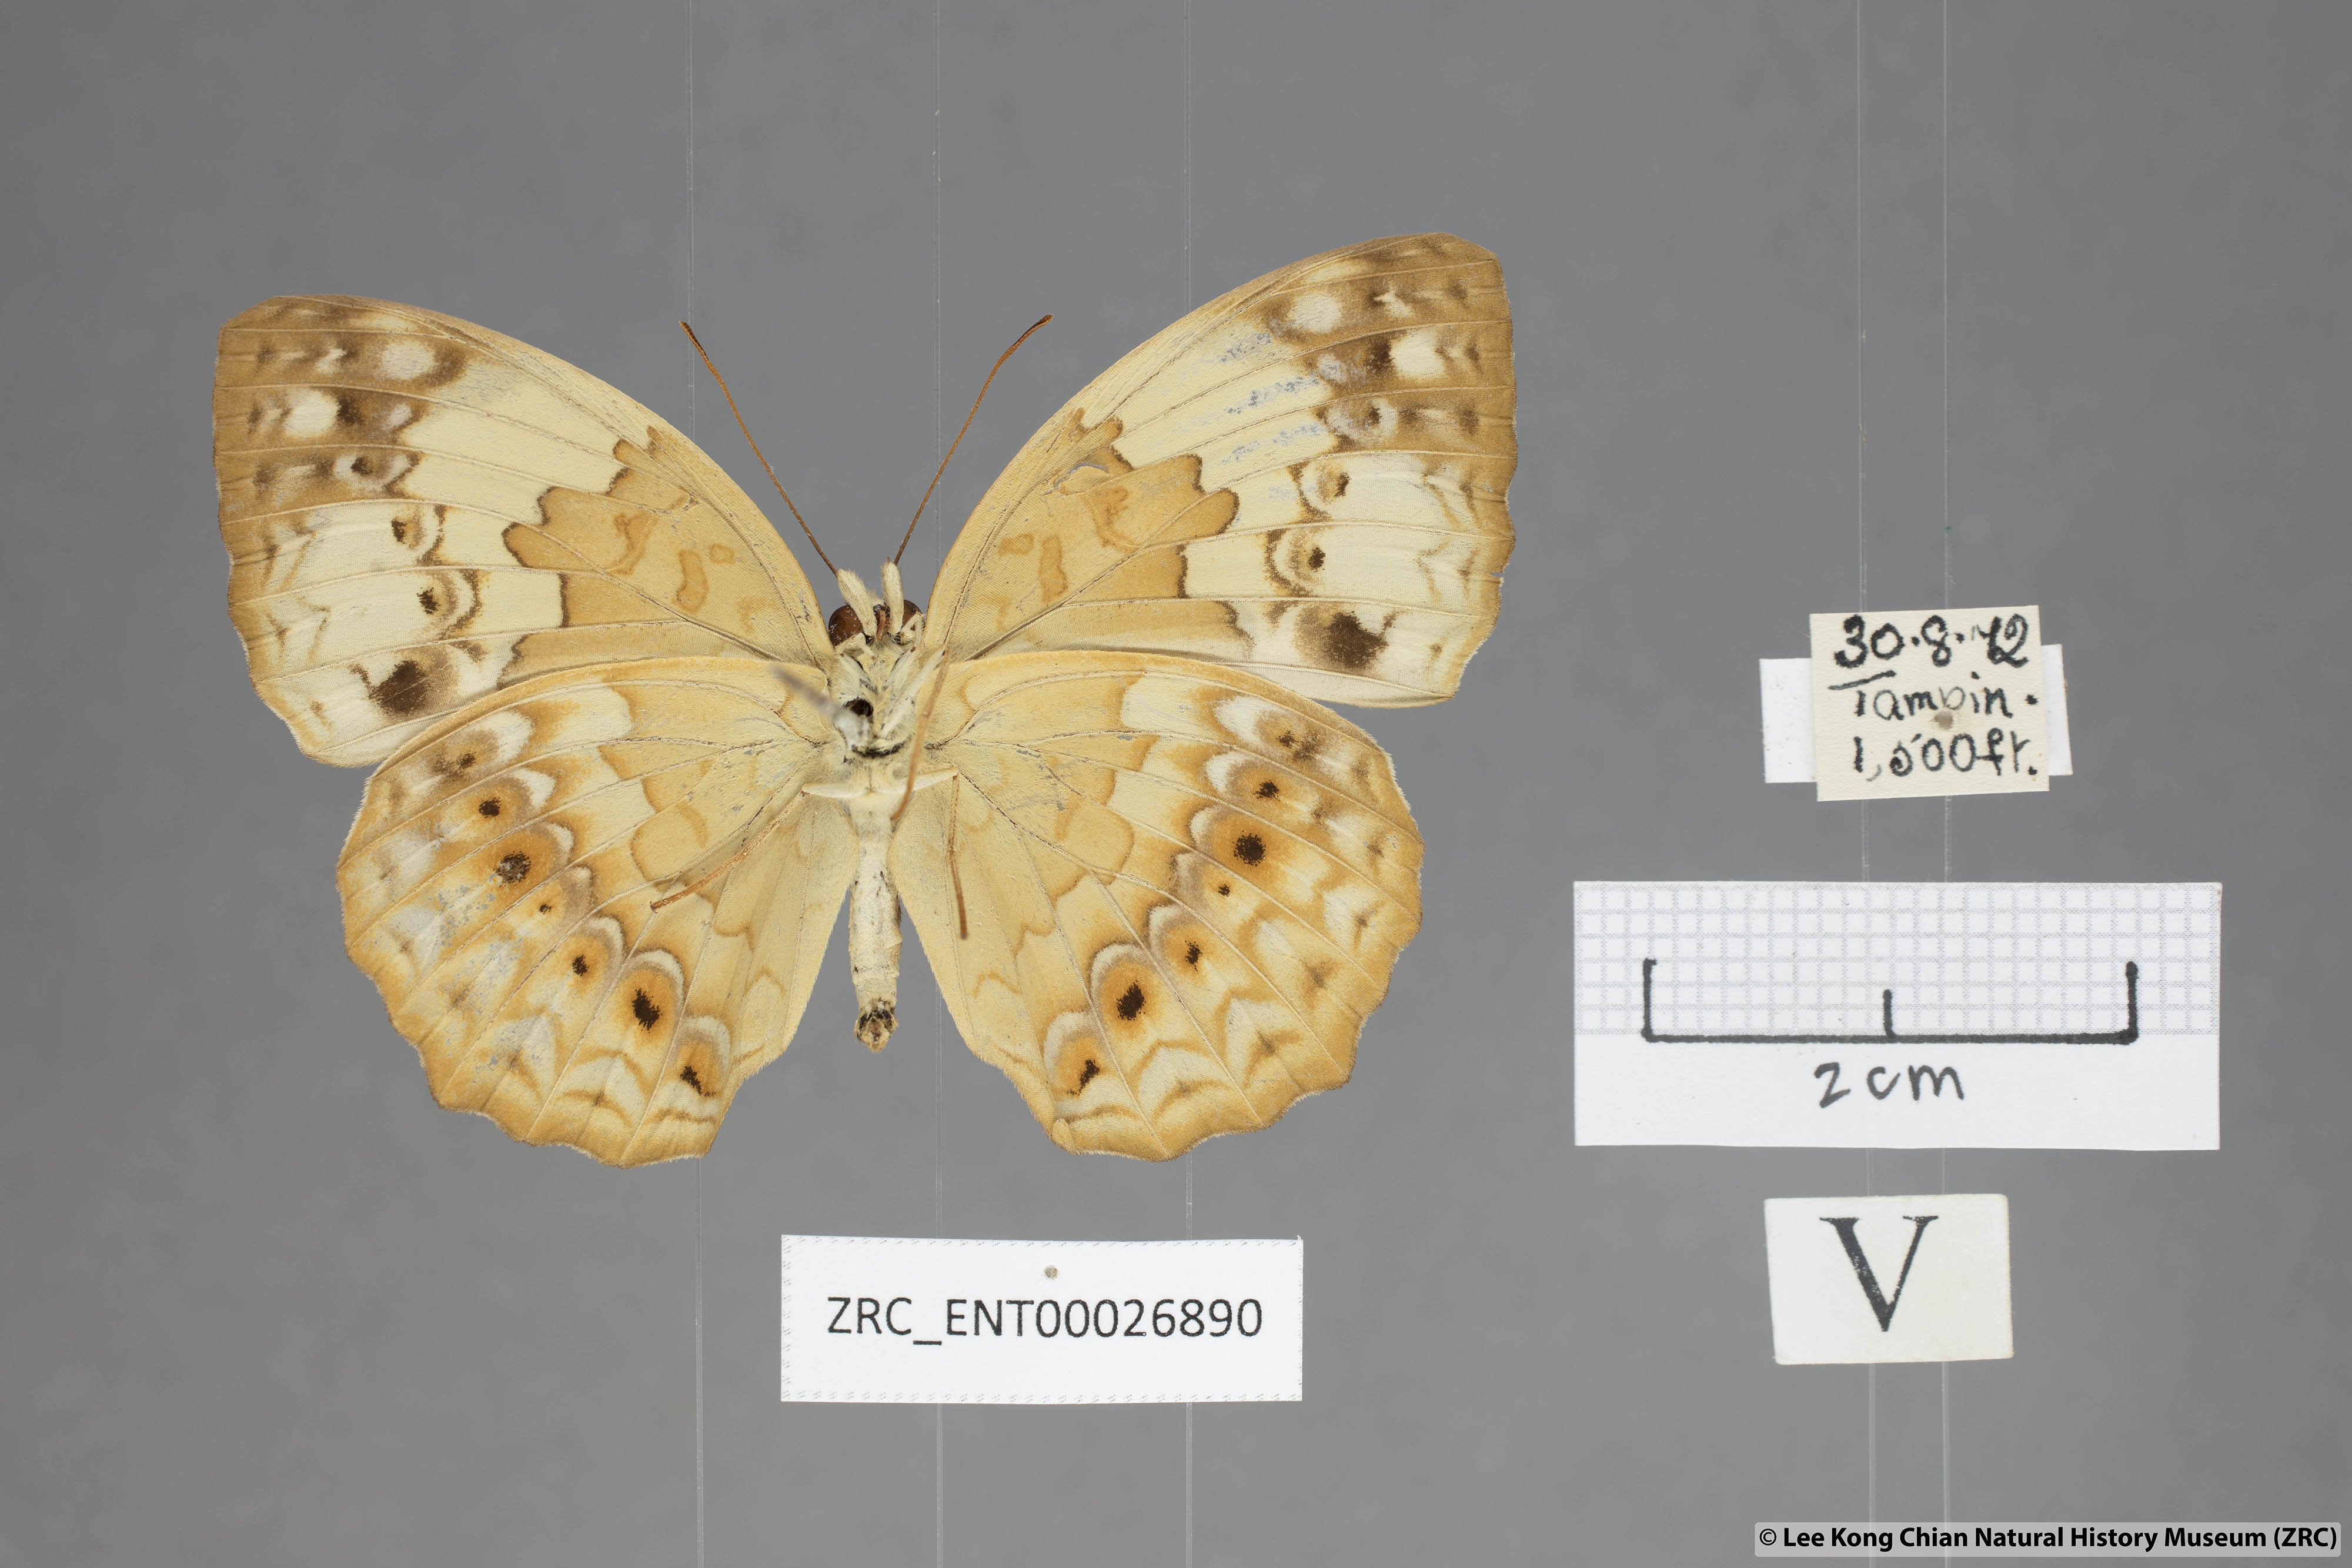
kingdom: Animalia
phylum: Arthropoda
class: Insecta
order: Lepidoptera
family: Nymphalidae
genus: Cupha
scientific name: Cupha erymanthis
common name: Rustic
